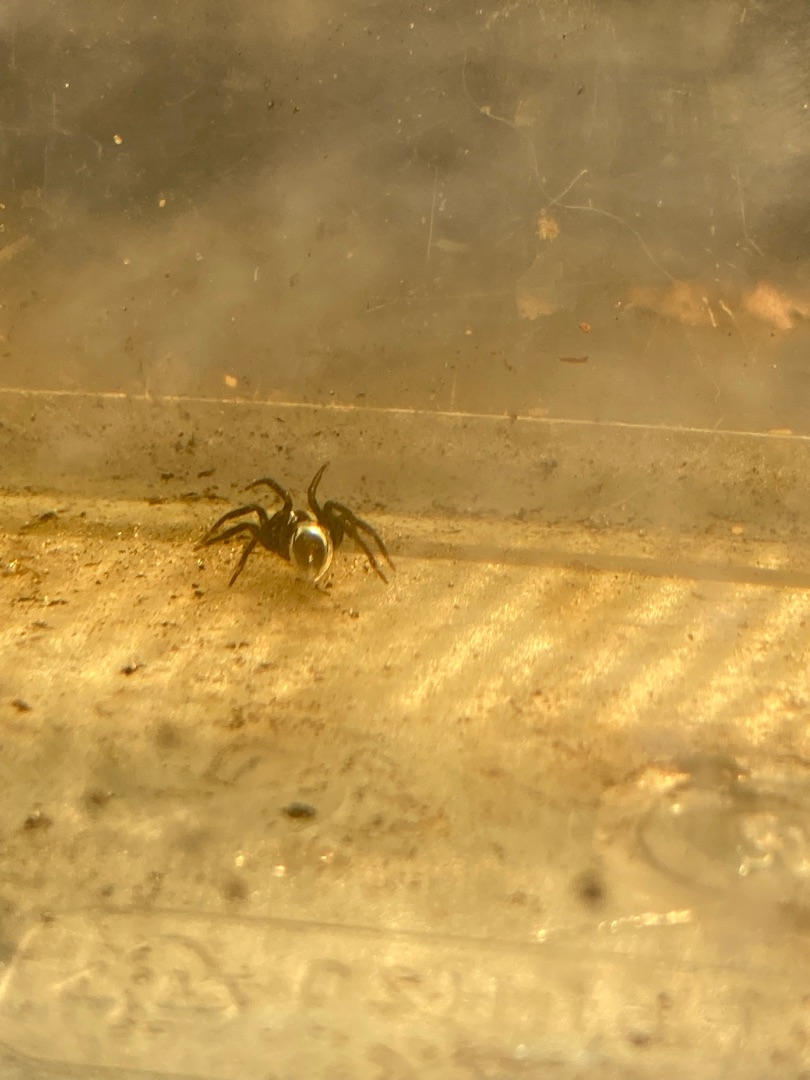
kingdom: Animalia
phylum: Arthropoda
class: Arachnida
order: Araneae
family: Dictynidae
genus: Argyroneta
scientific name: Argyroneta aquatica
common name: Vandedderkop
